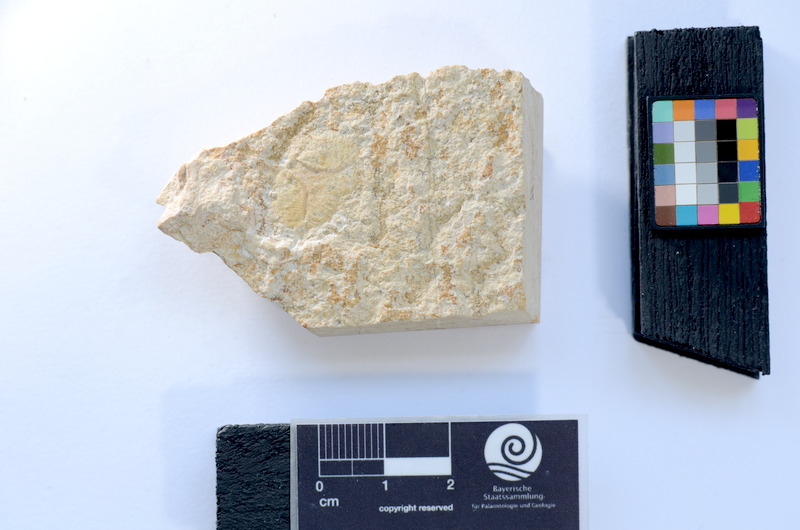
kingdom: Animalia
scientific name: Animalia
